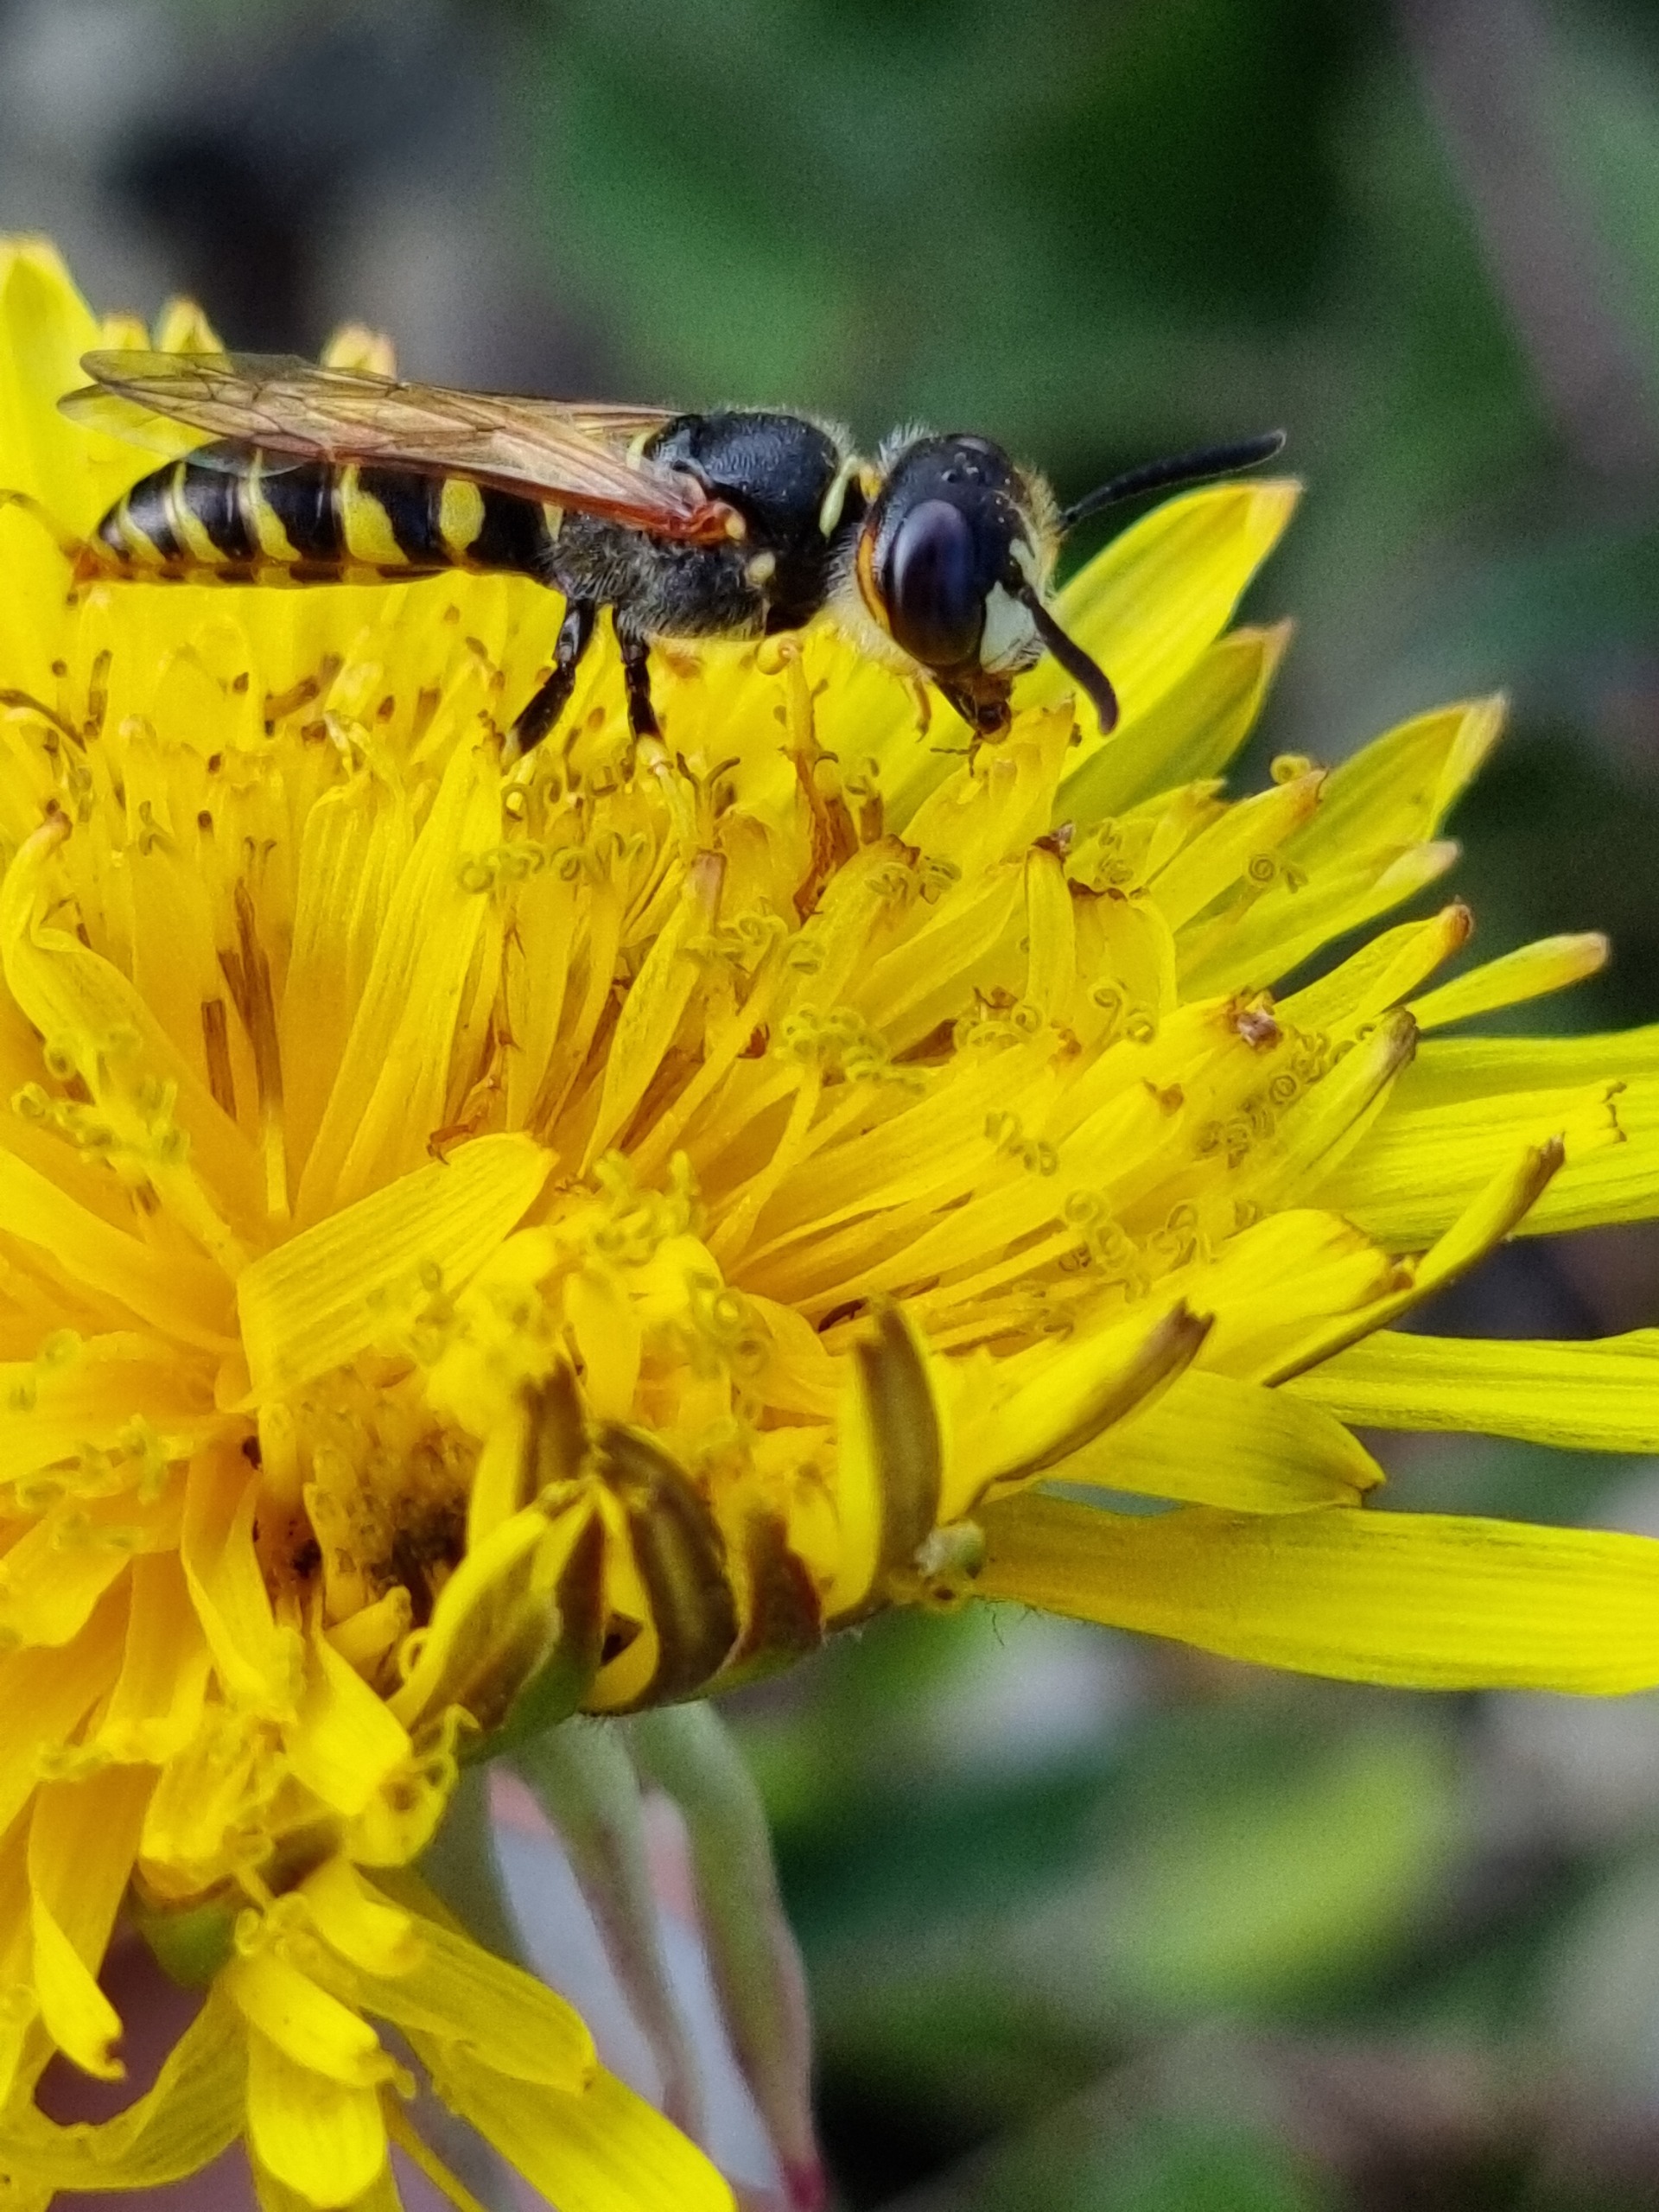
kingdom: Animalia
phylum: Arthropoda
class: Insecta
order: Hymenoptera
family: Crabronidae
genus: Philanthus
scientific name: Philanthus triangulum
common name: Biulv
